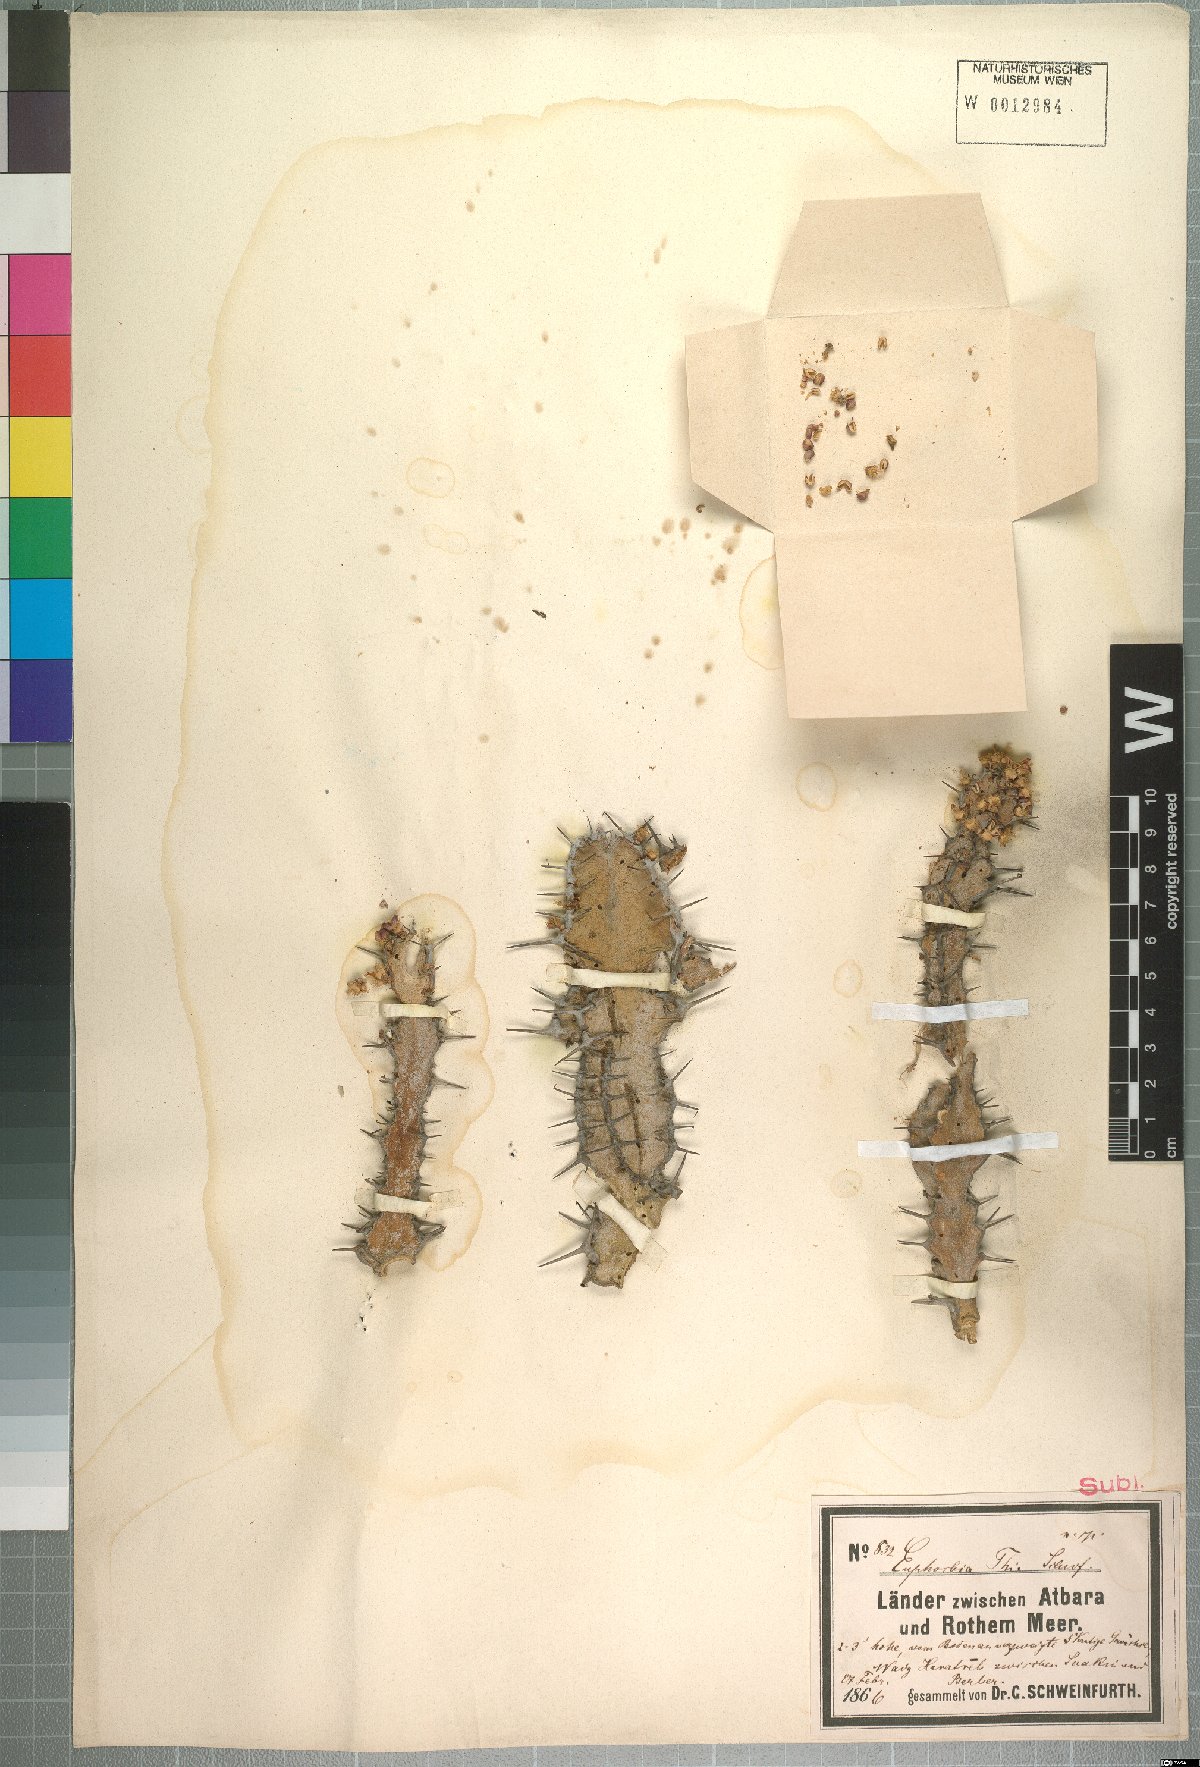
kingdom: Plantae
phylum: Tracheophyta
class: Magnoliopsida
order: Malpighiales
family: Euphorbiaceae
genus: Euphorbia
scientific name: Euphorbia polyacantha
